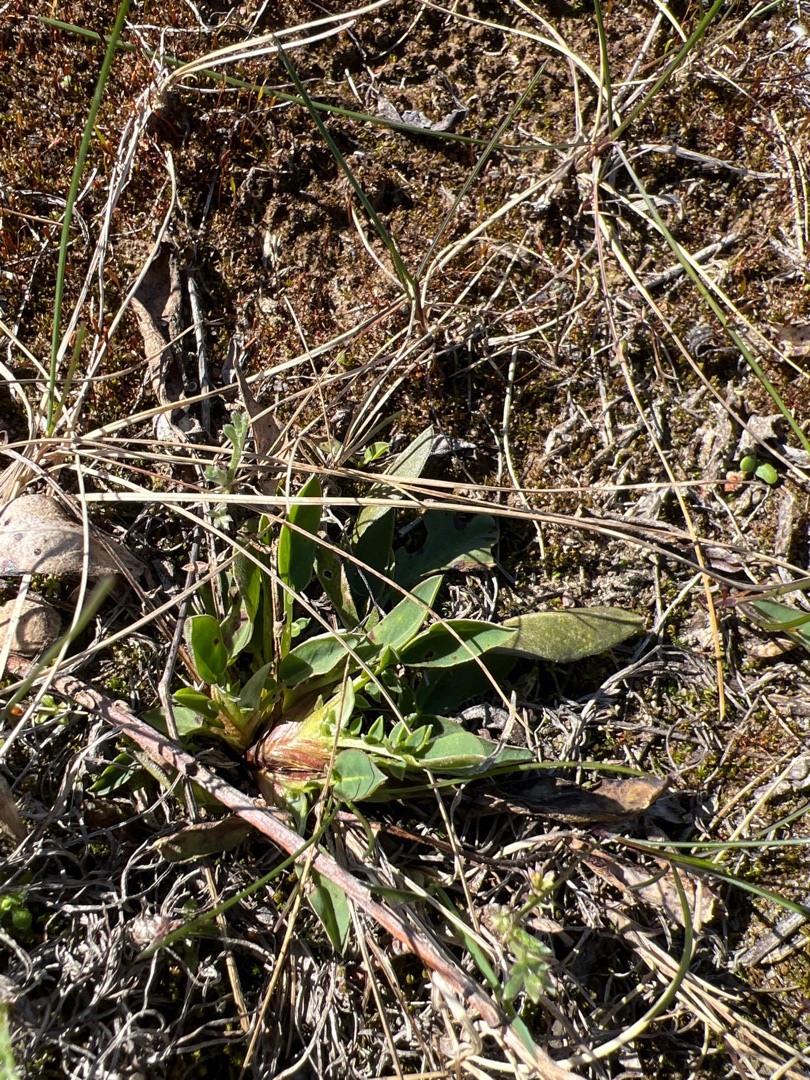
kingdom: Plantae
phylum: Tracheophyta
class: Magnoliopsida
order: Fabales
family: Fabaceae
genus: Anthyllis
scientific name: Anthyllis vulneraria
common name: Rundbælg
